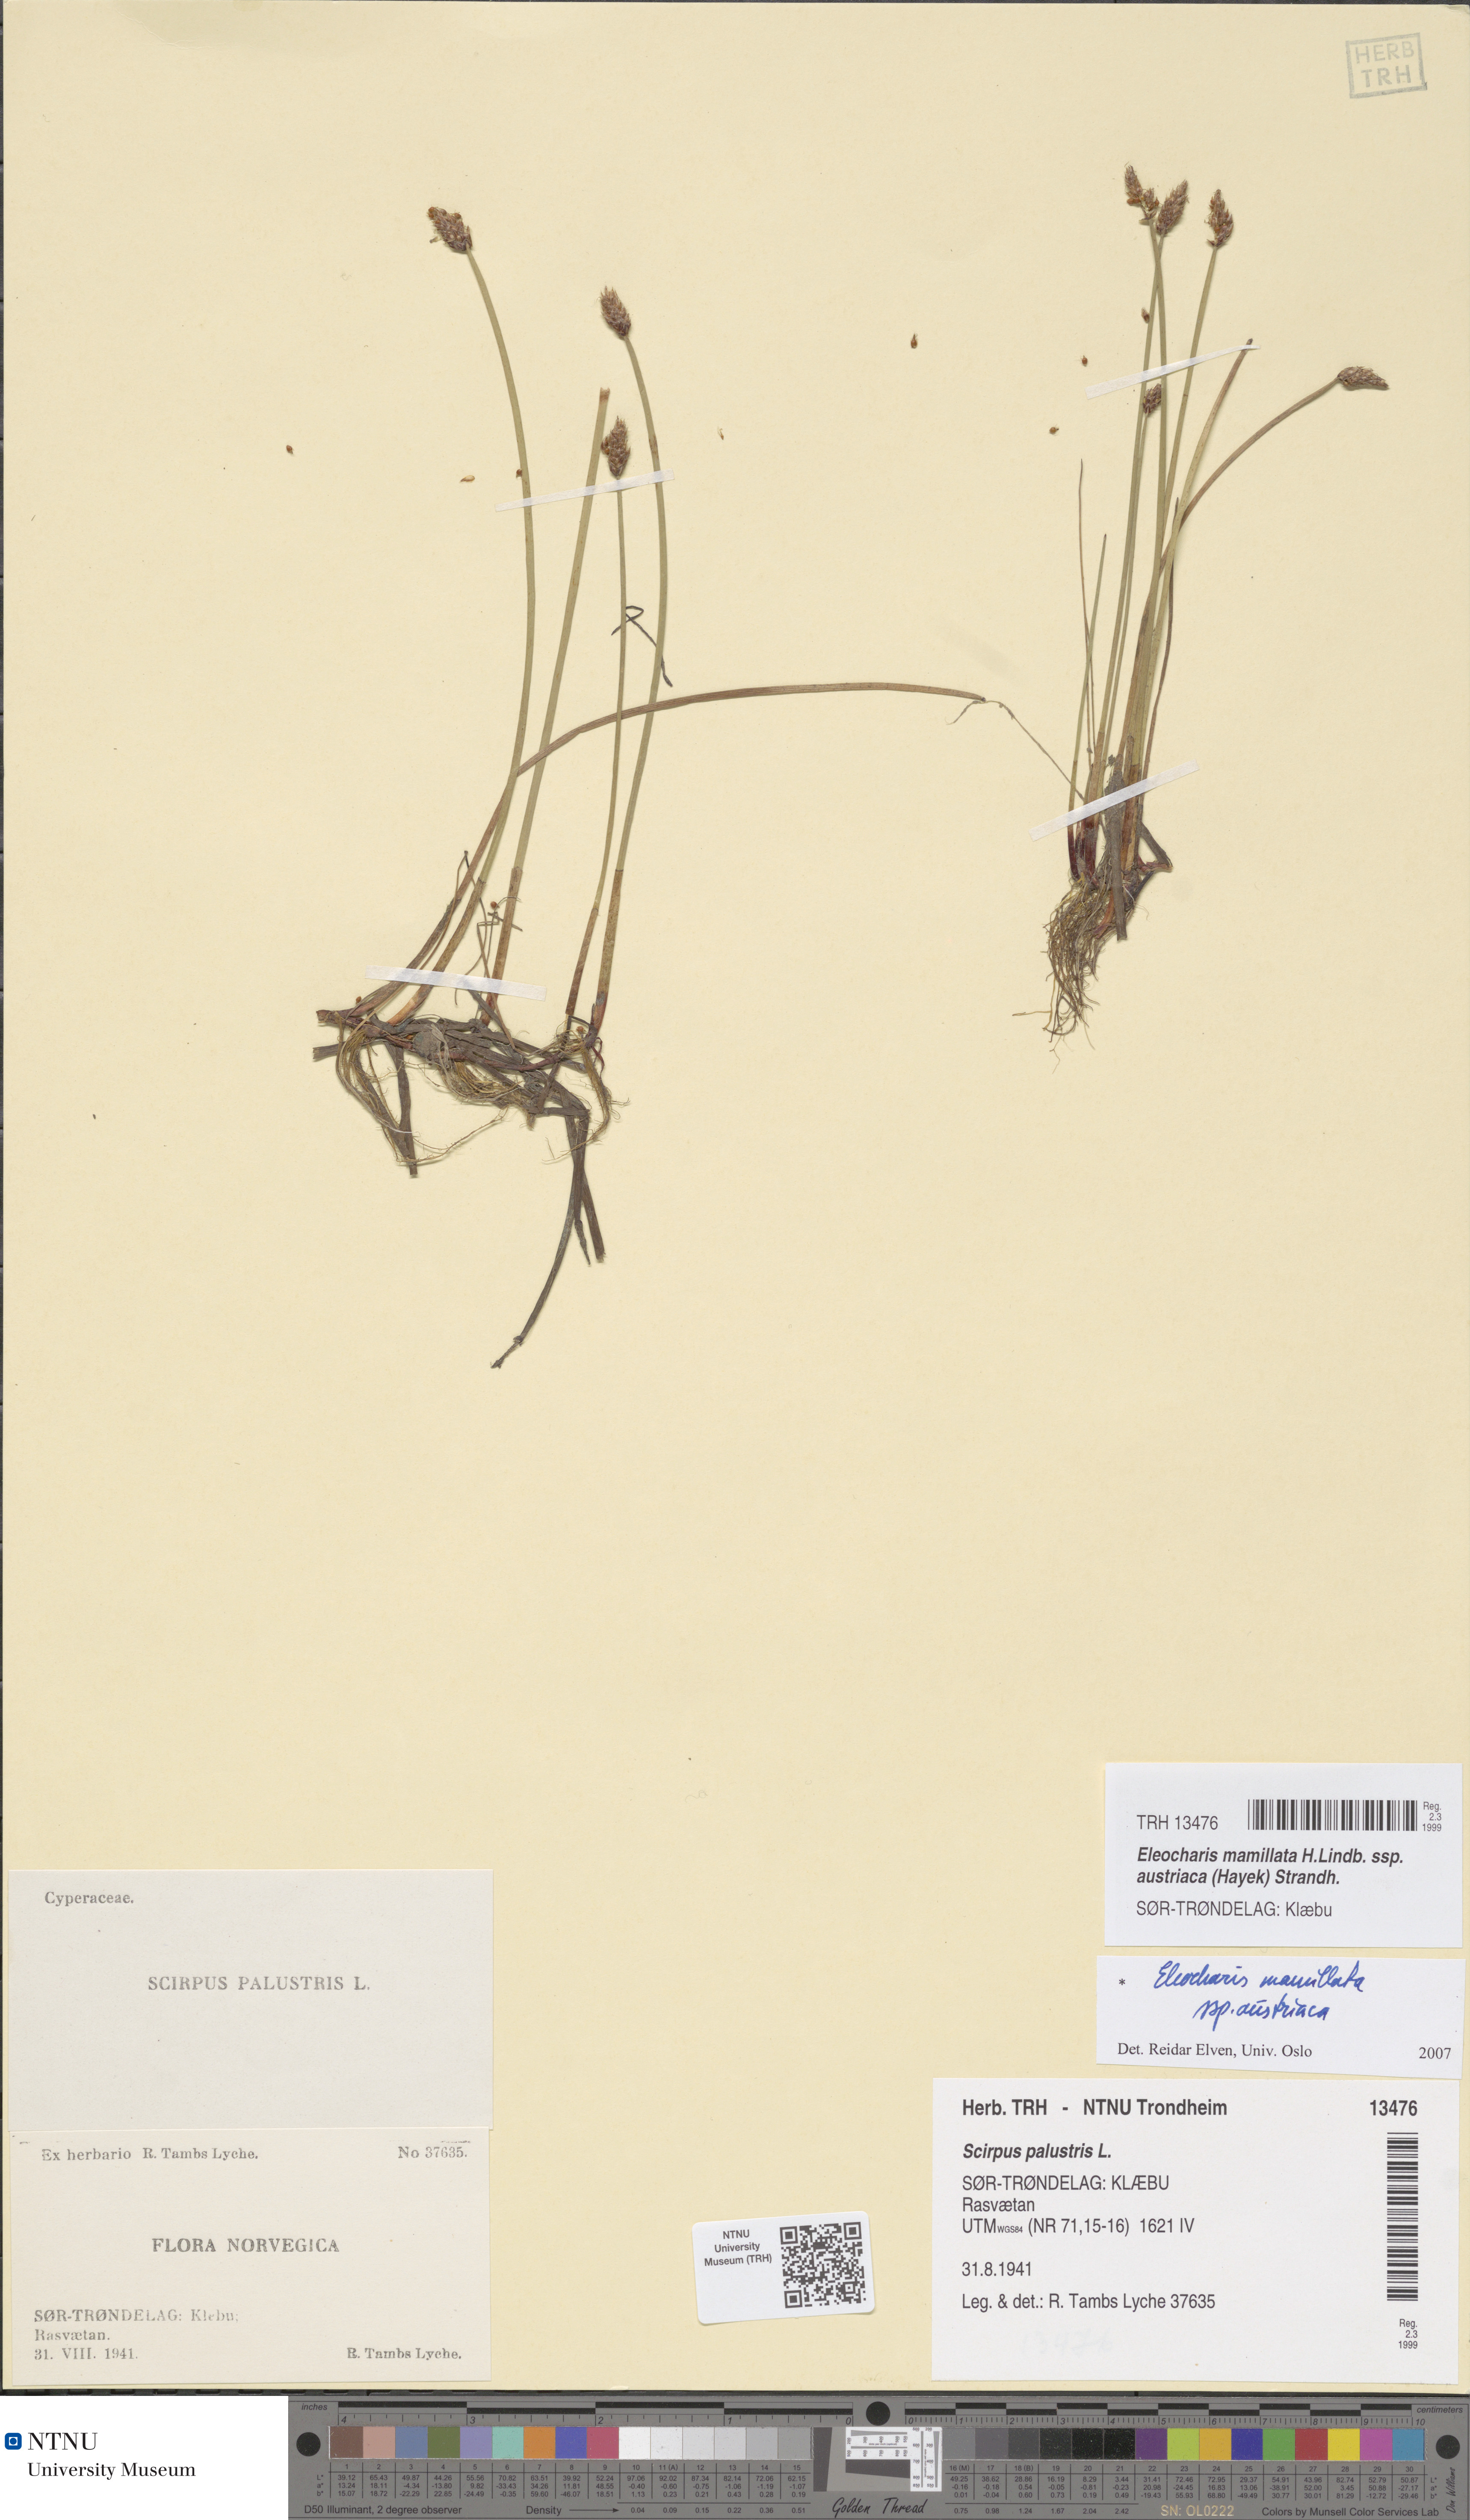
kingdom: Plantae
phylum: Tracheophyta
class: Liliopsida
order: Poales
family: Cyperaceae
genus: Eleocharis
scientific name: Eleocharis mamillata
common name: Northern spike-rush
